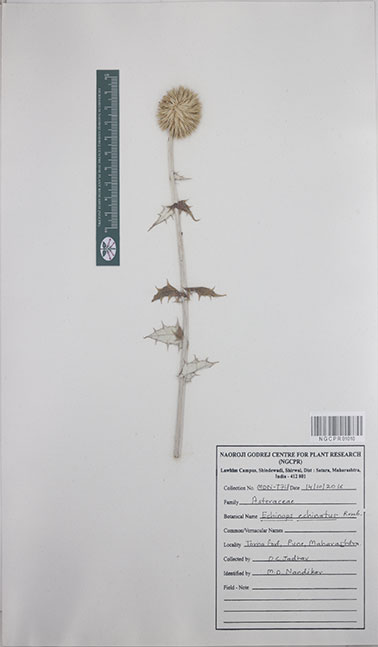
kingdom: Plantae
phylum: Tracheophyta
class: Magnoliopsida
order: Asterales
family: Asteraceae
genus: Echinops
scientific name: Echinops echinatus
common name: Indian globe thistle
